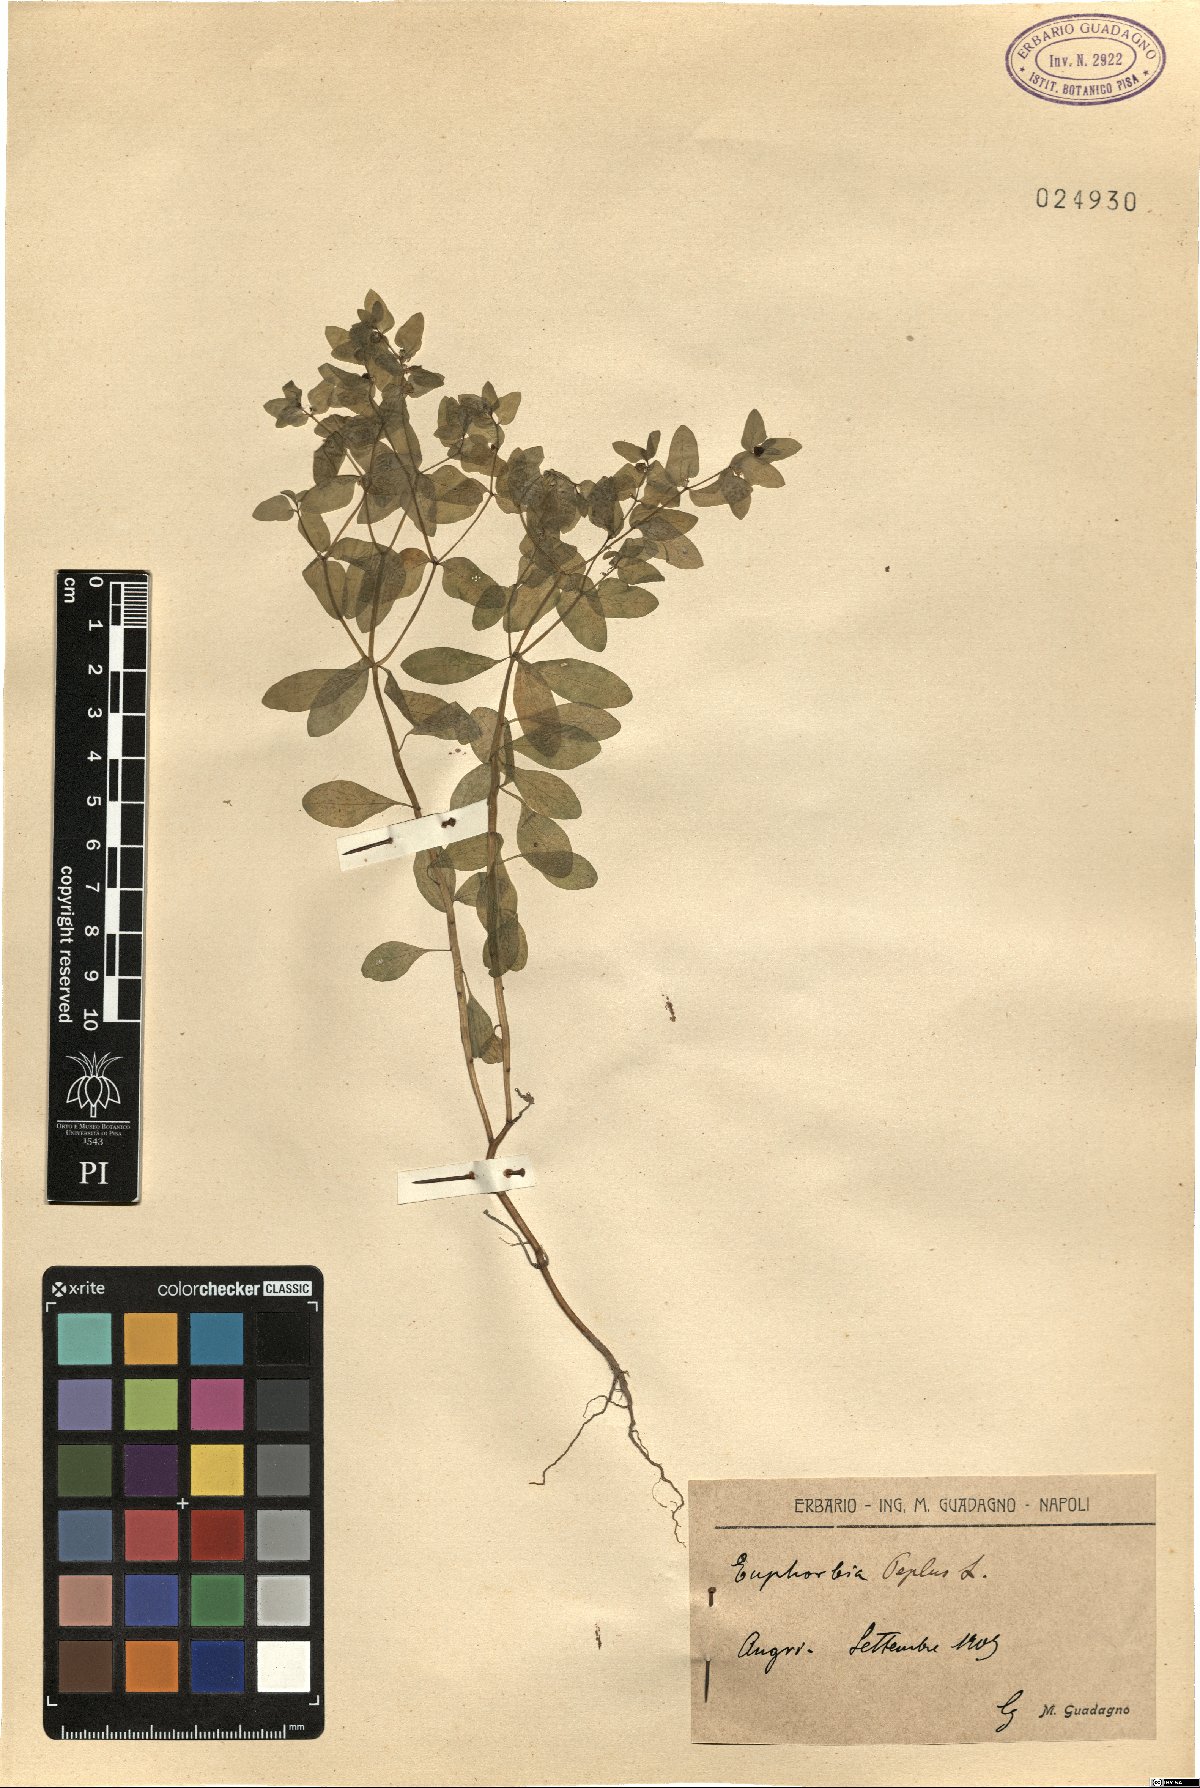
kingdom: Plantae
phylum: Tracheophyta
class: Magnoliopsida
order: Malpighiales
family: Euphorbiaceae
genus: Euphorbia
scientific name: Euphorbia peplus
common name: Petty spurge
